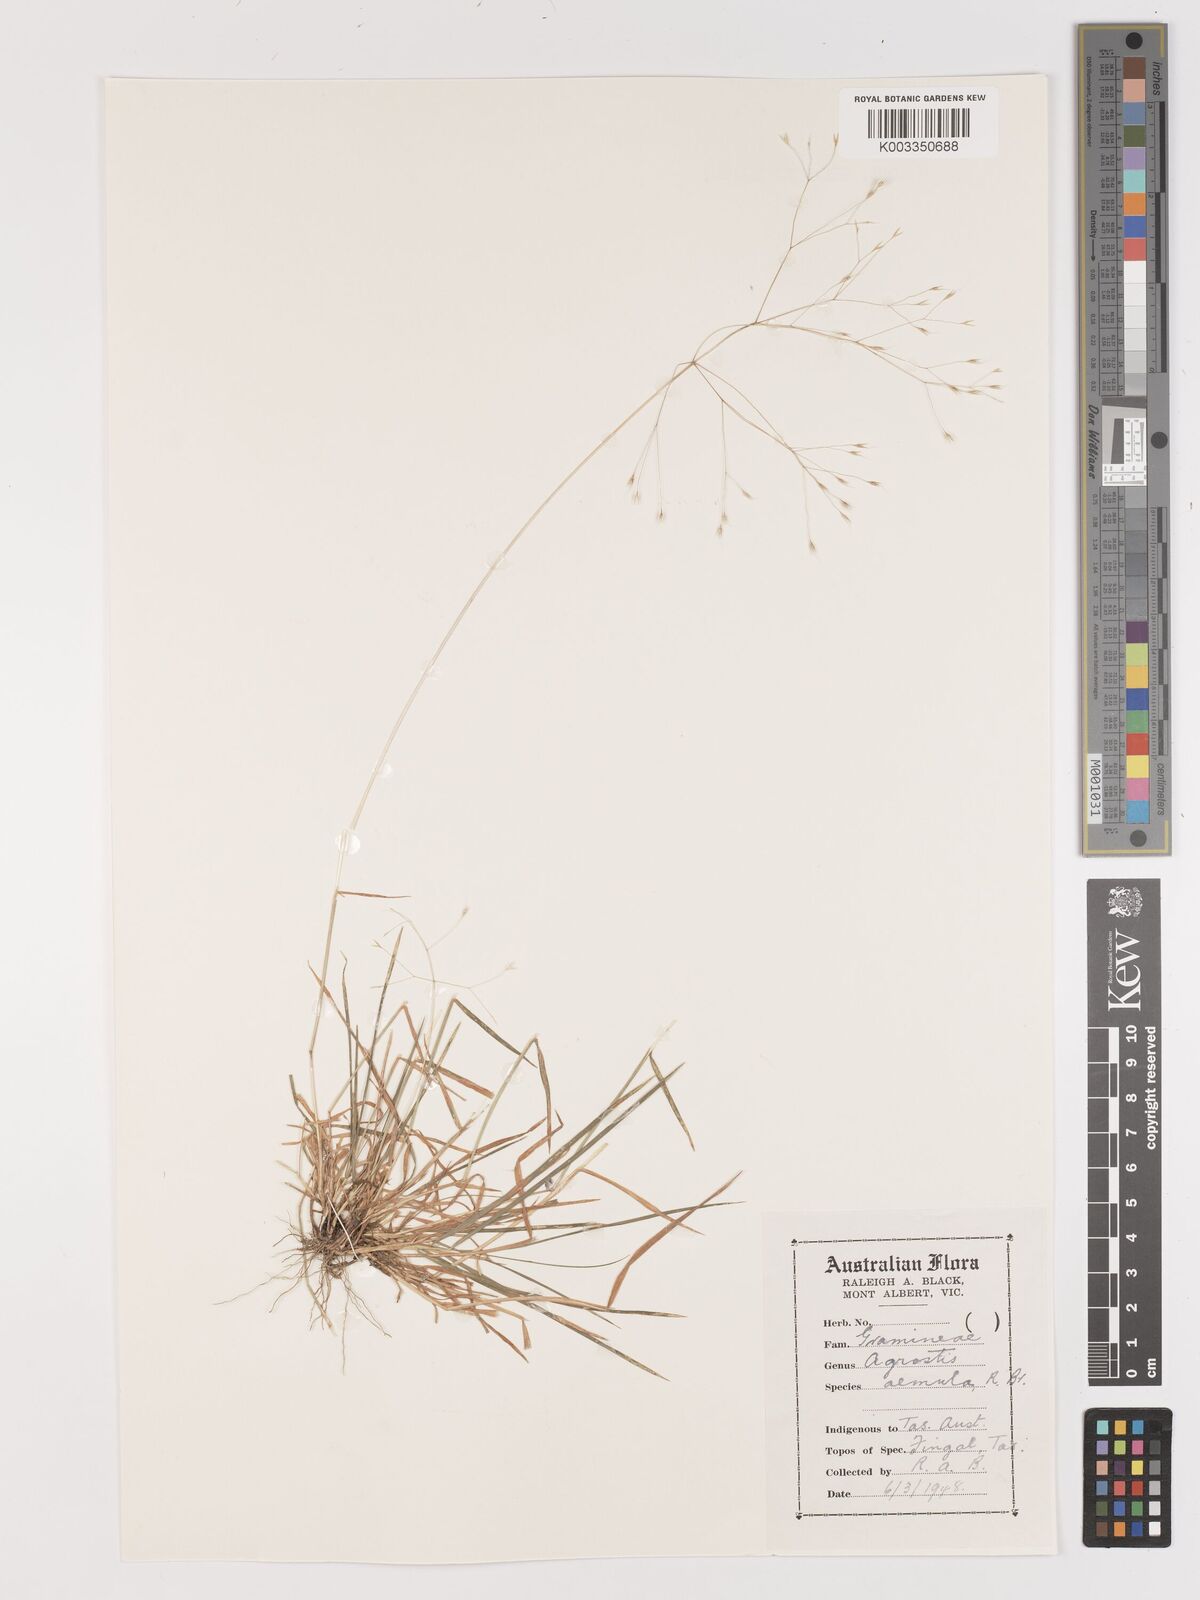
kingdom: Plantae
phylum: Tracheophyta
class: Liliopsida
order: Poales
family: Poaceae
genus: Lachnagrostis
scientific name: Lachnagrostis aemula
